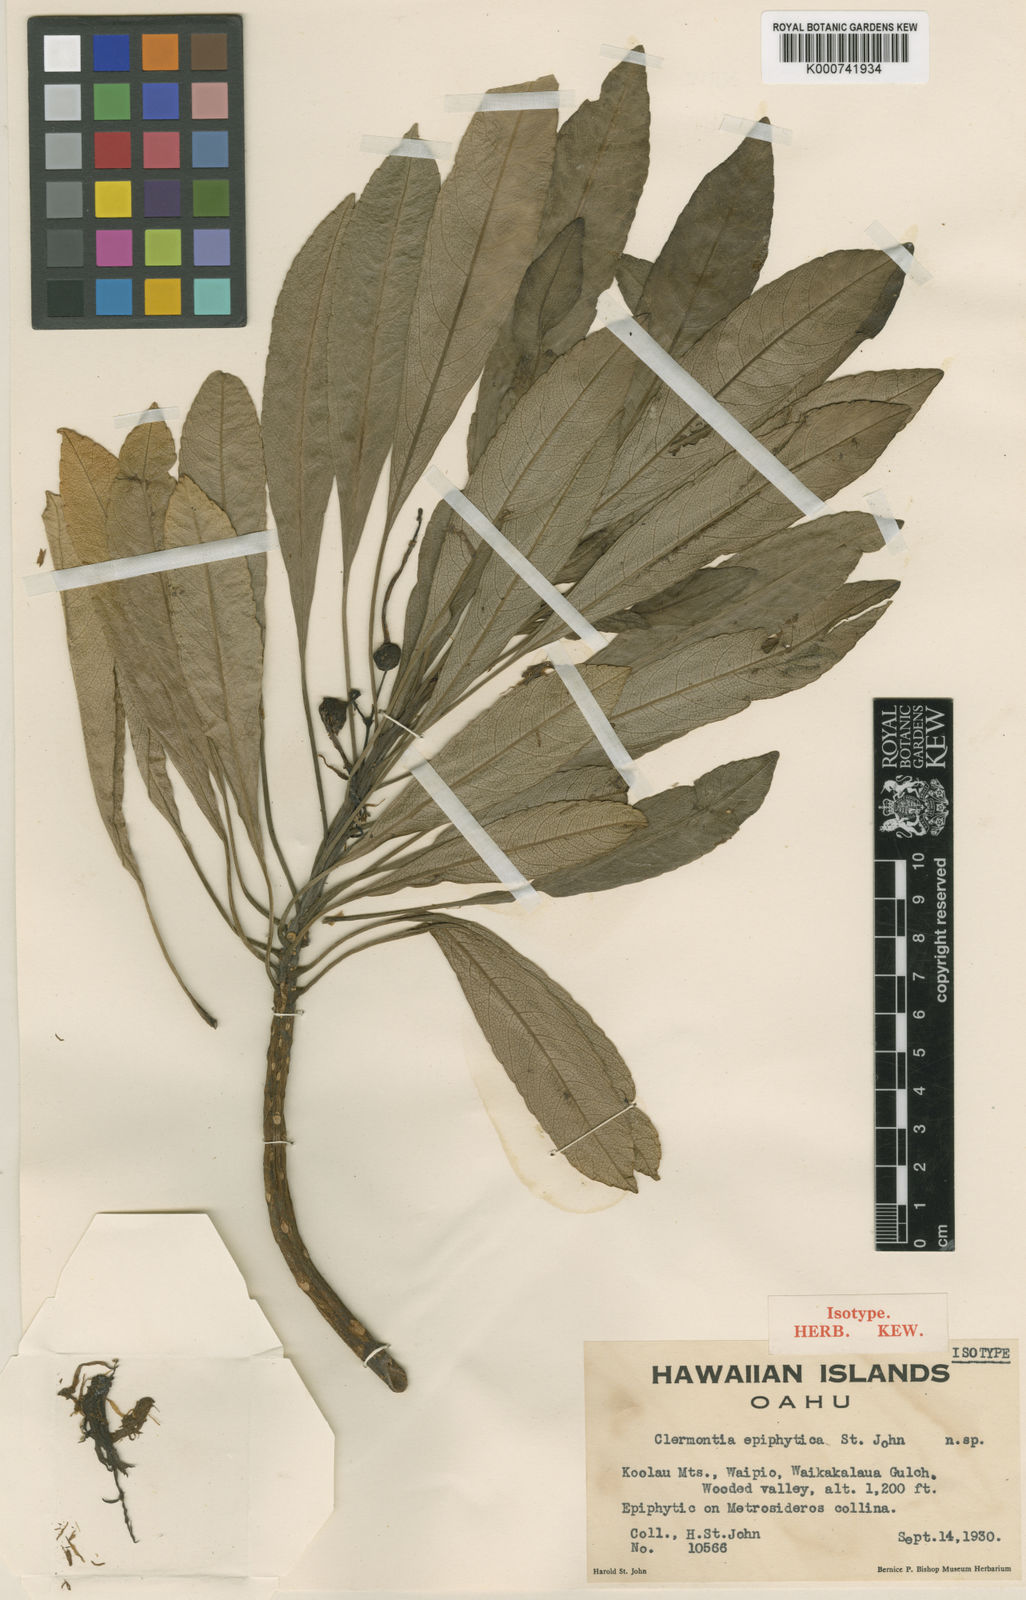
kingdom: Plantae
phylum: Tracheophyta
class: Magnoliopsida
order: Asterales
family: Campanulaceae
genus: Clermontia
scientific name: Clermontia persicifolia
